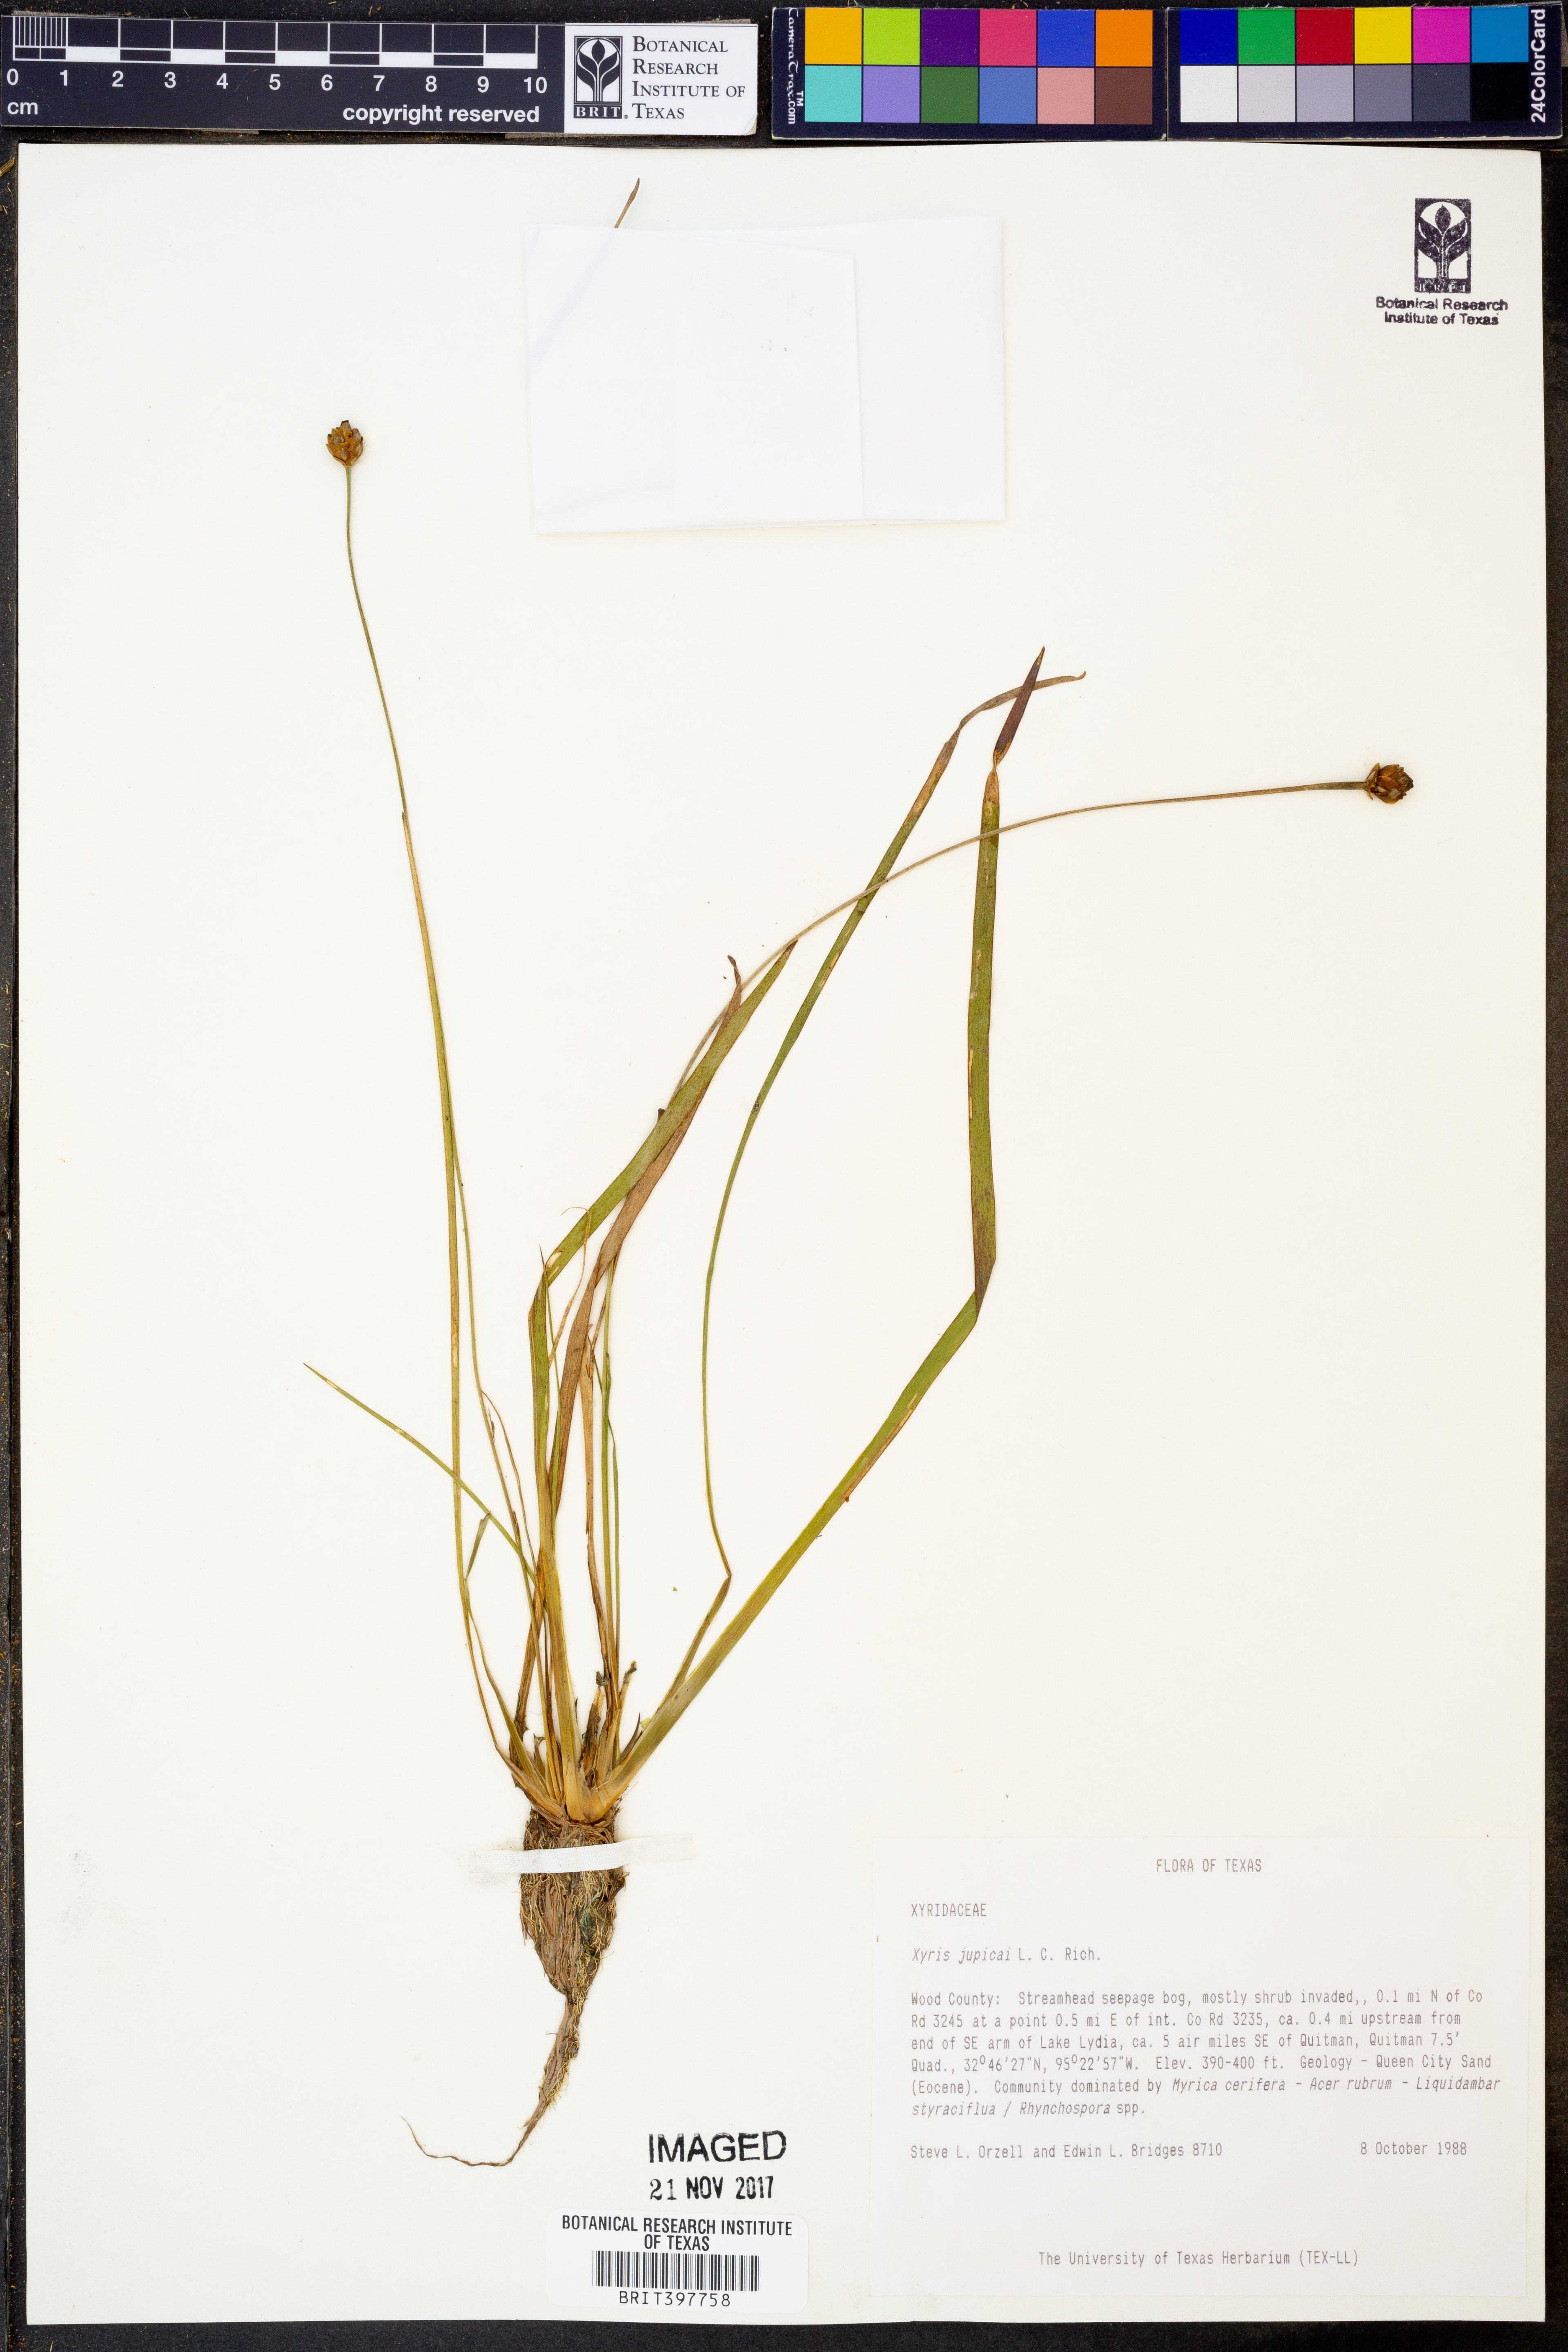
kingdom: Plantae
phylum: Tracheophyta
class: Liliopsida
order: Poales
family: Xyridaceae
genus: Xyris
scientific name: Xyris jupicai
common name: Richard's yelloweyed grass
